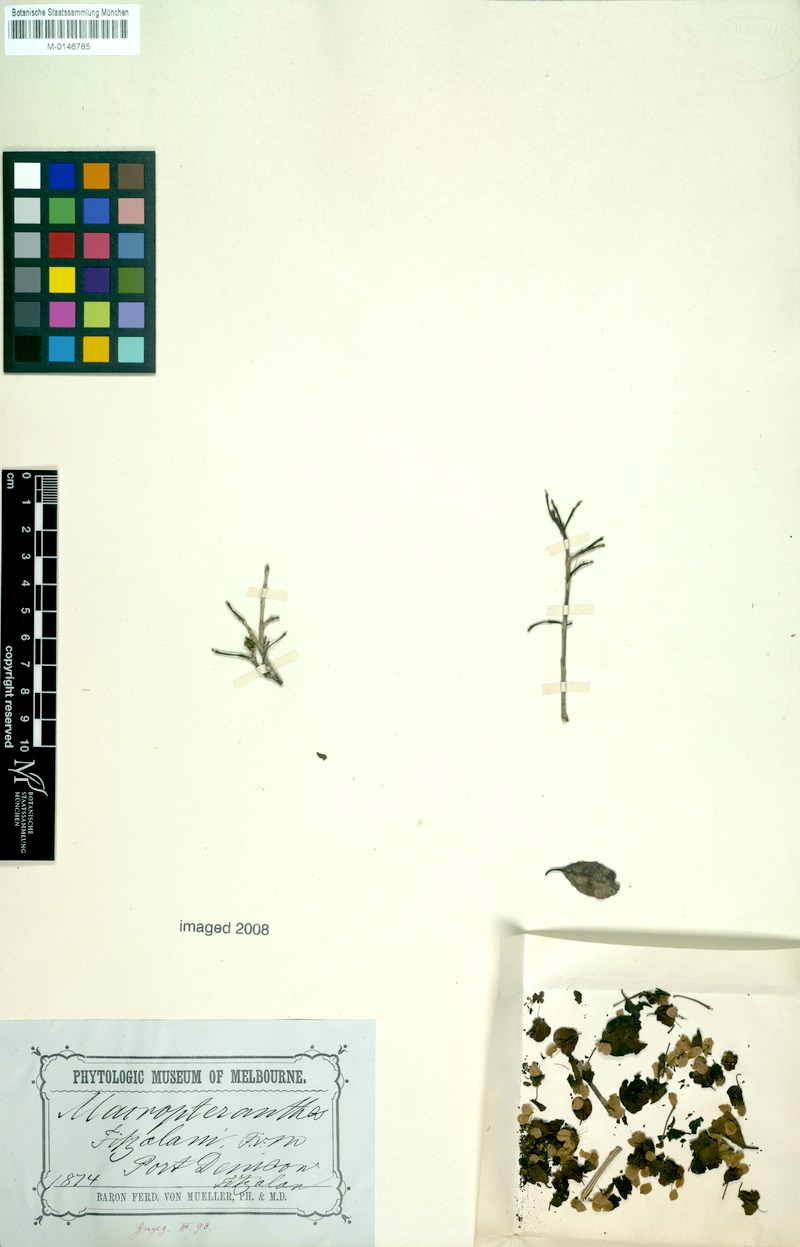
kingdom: Plantae
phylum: Tracheophyta
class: Magnoliopsida
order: Myrtales
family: Combretaceae
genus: Macropteranthes
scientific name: Macropteranthes fitzalanii
